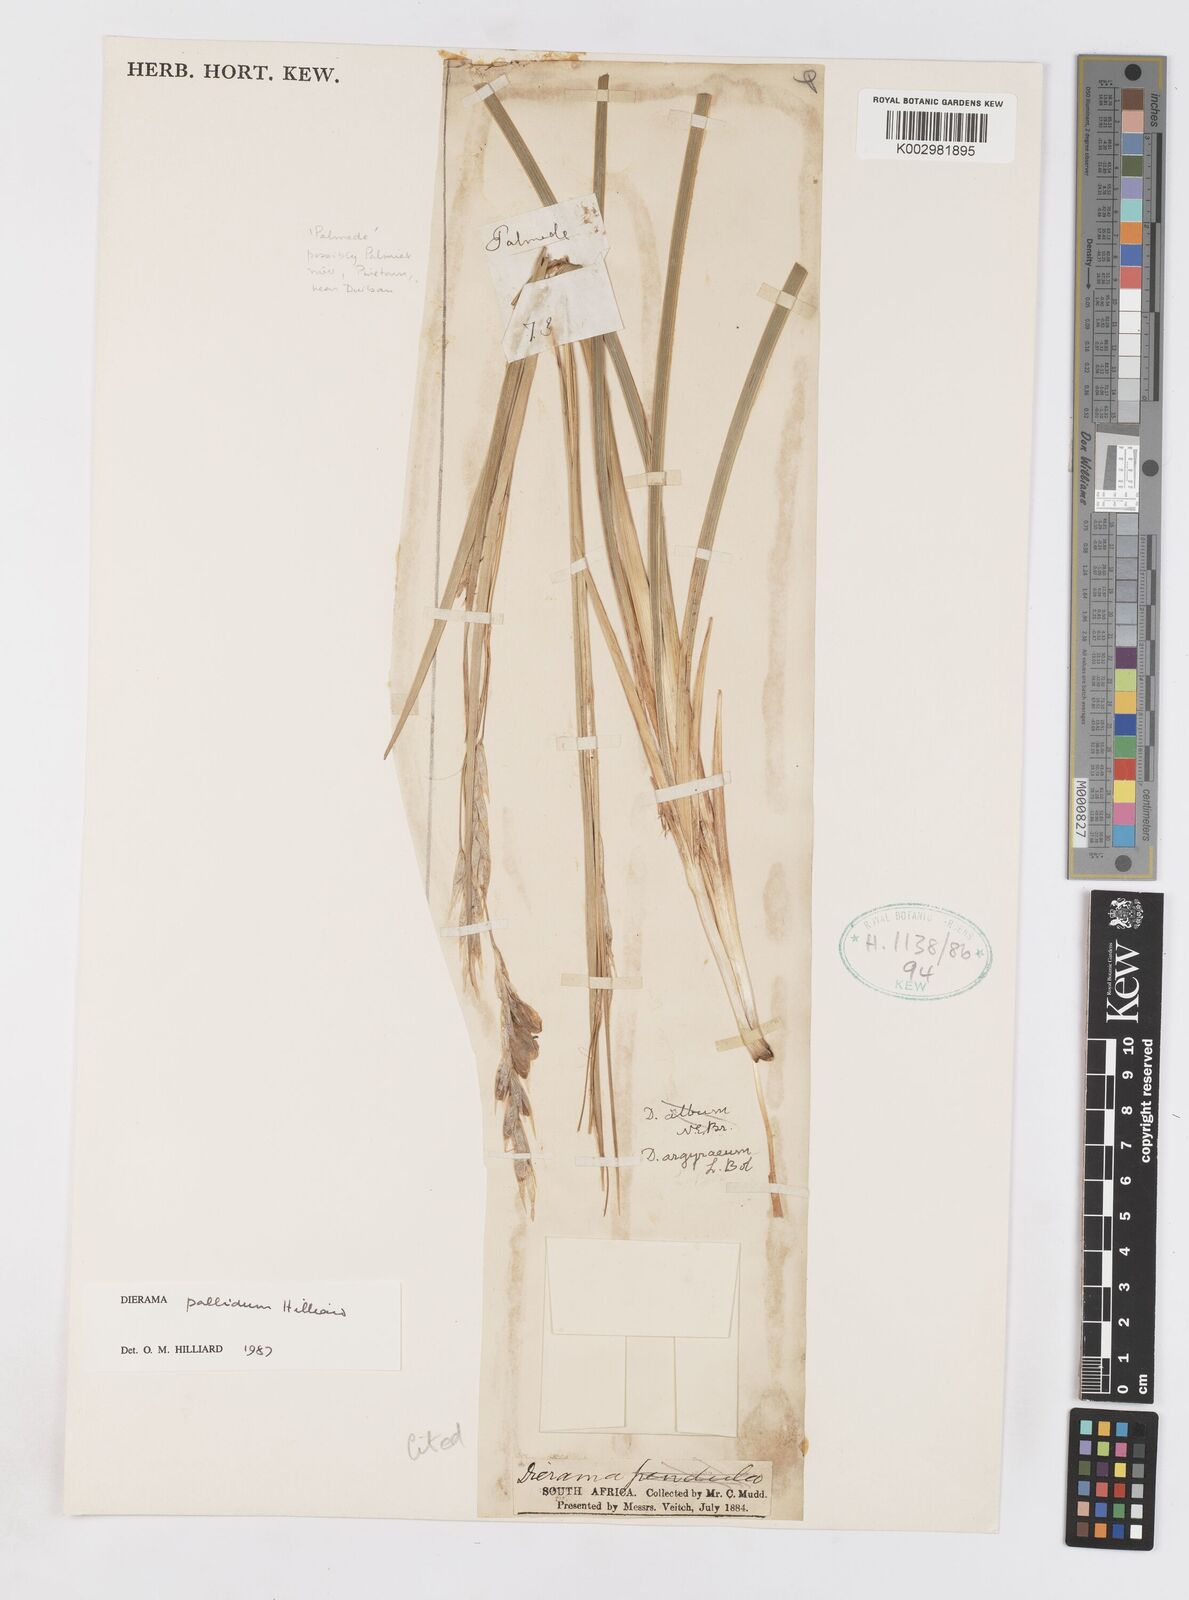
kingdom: Plantae
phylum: Tracheophyta
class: Liliopsida
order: Asparagales
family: Iridaceae
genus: Dierama
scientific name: Dierama pallidum
